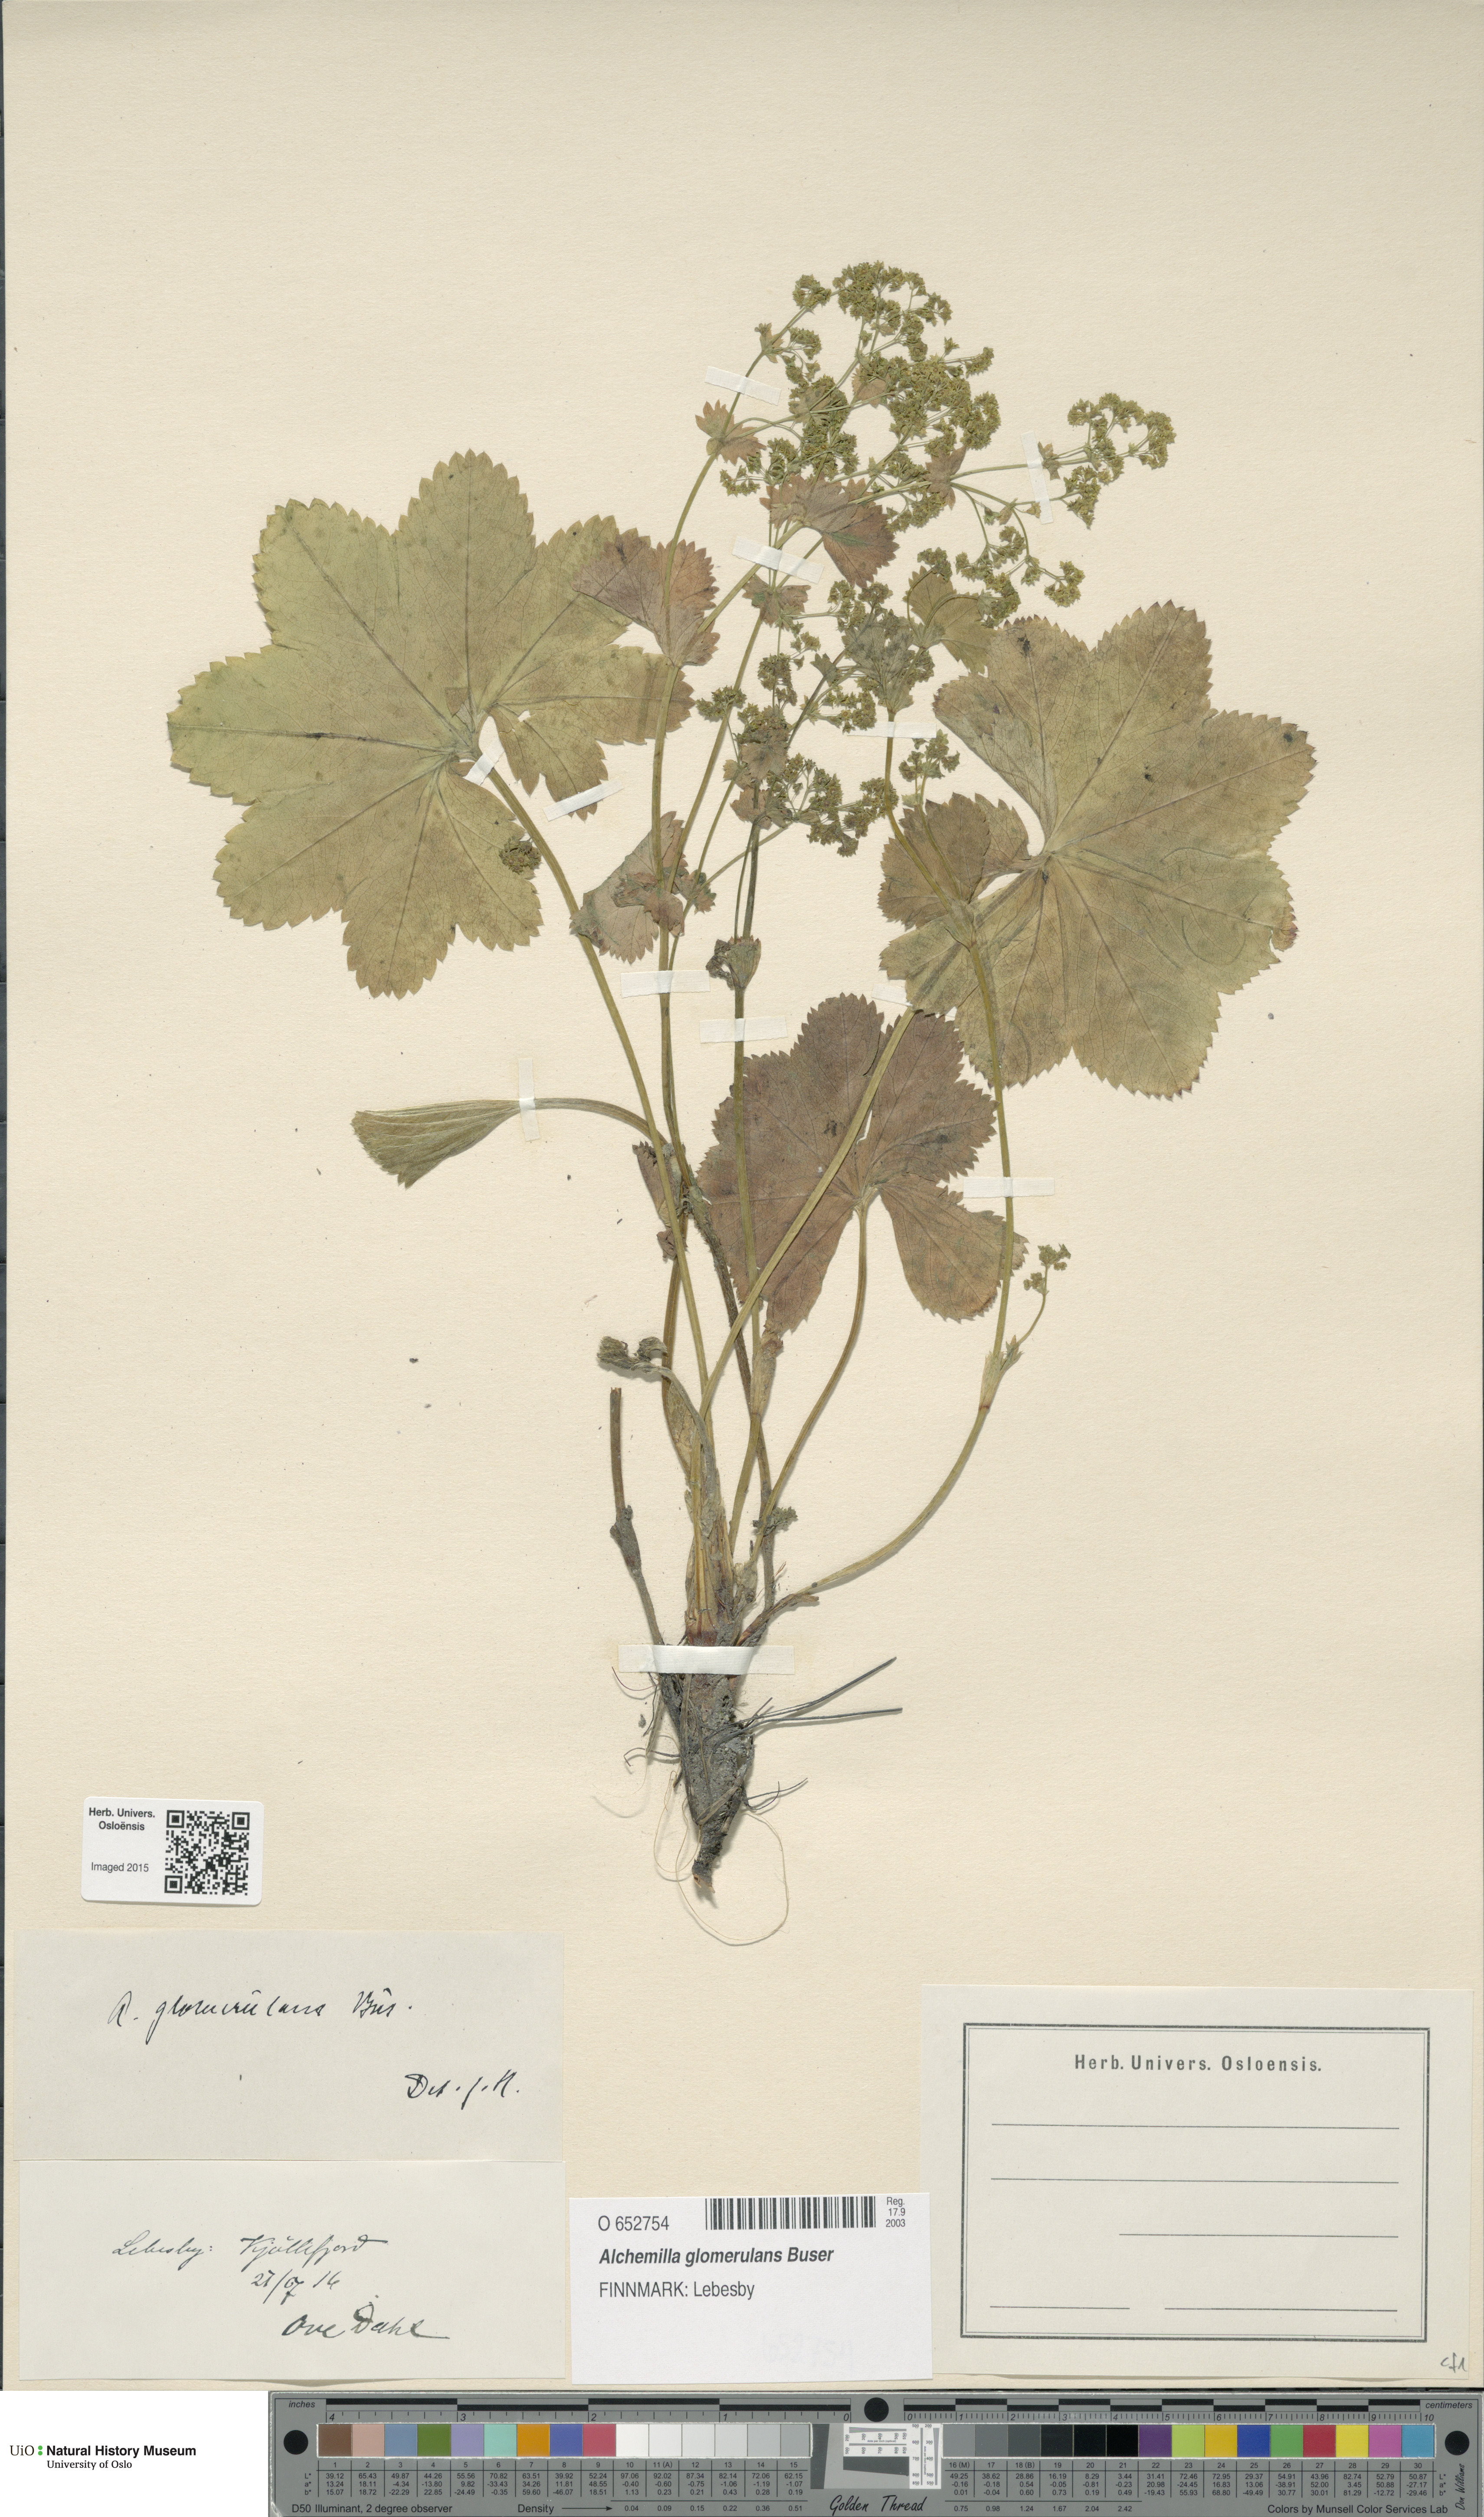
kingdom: Plantae
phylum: Tracheophyta
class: Magnoliopsida
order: Rosales
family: Rosaceae
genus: Alchemilla
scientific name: Alchemilla glomerulans
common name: Clustered lady's mantle
